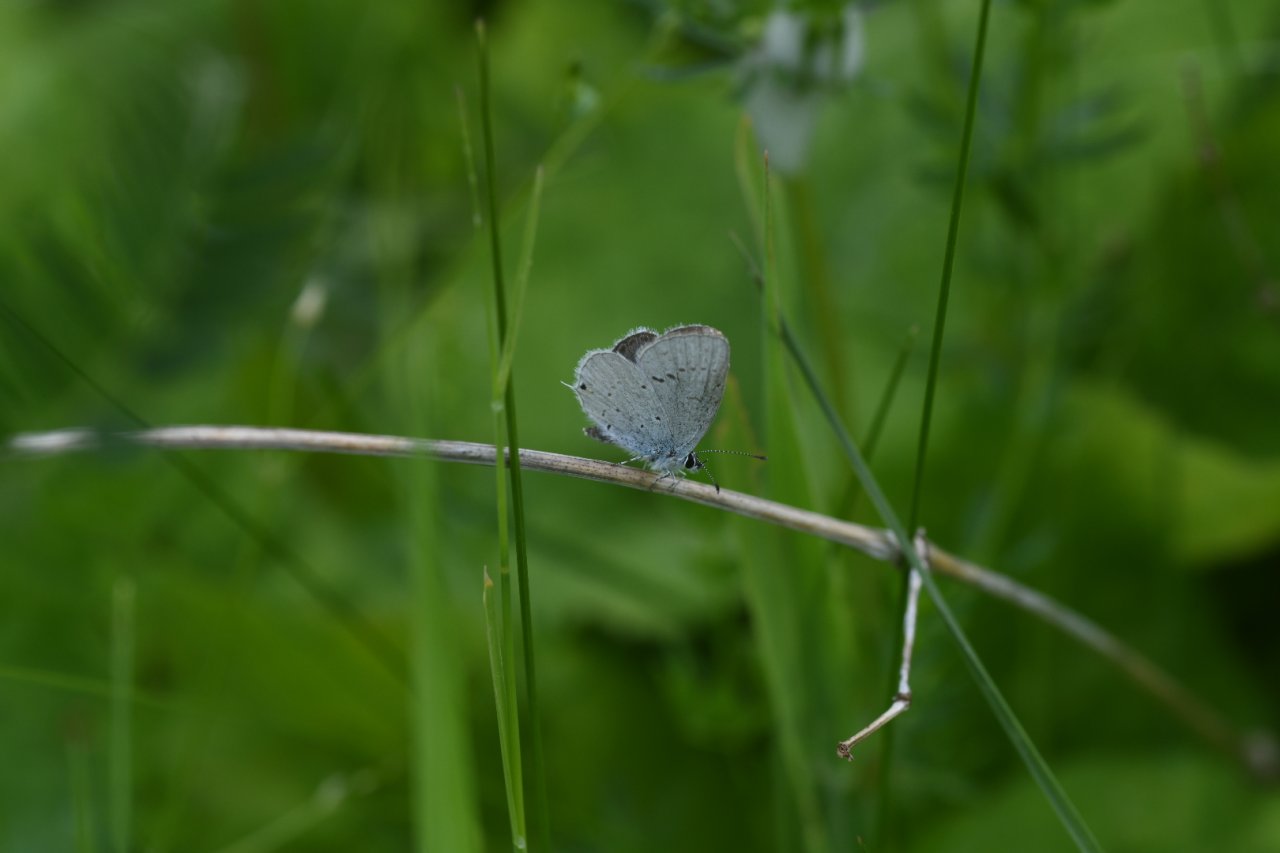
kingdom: Animalia
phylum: Arthropoda
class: Insecta
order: Lepidoptera
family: Lycaenidae
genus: Elkalyce
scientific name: Elkalyce amyntula
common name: Western Tailed-Blue
